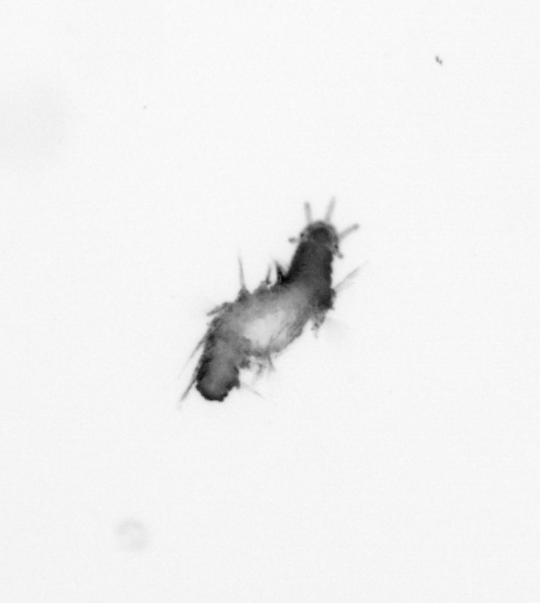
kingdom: Animalia
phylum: Annelida
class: Polychaeta
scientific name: Polychaeta
